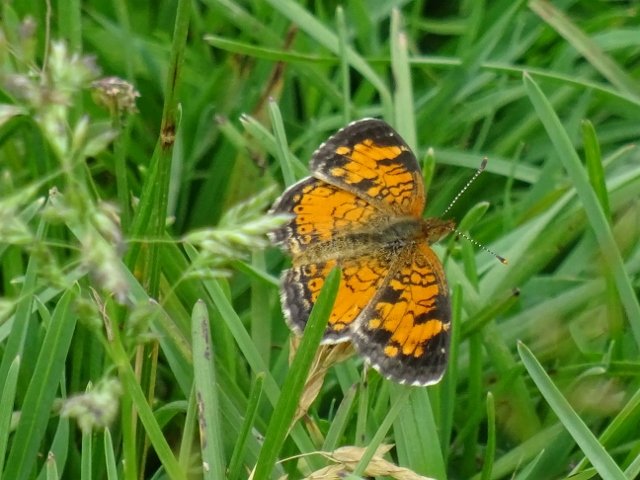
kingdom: Animalia
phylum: Arthropoda
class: Insecta
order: Lepidoptera
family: Nymphalidae
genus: Phyciodes
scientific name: Phyciodes tharos
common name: Northern Crescent
